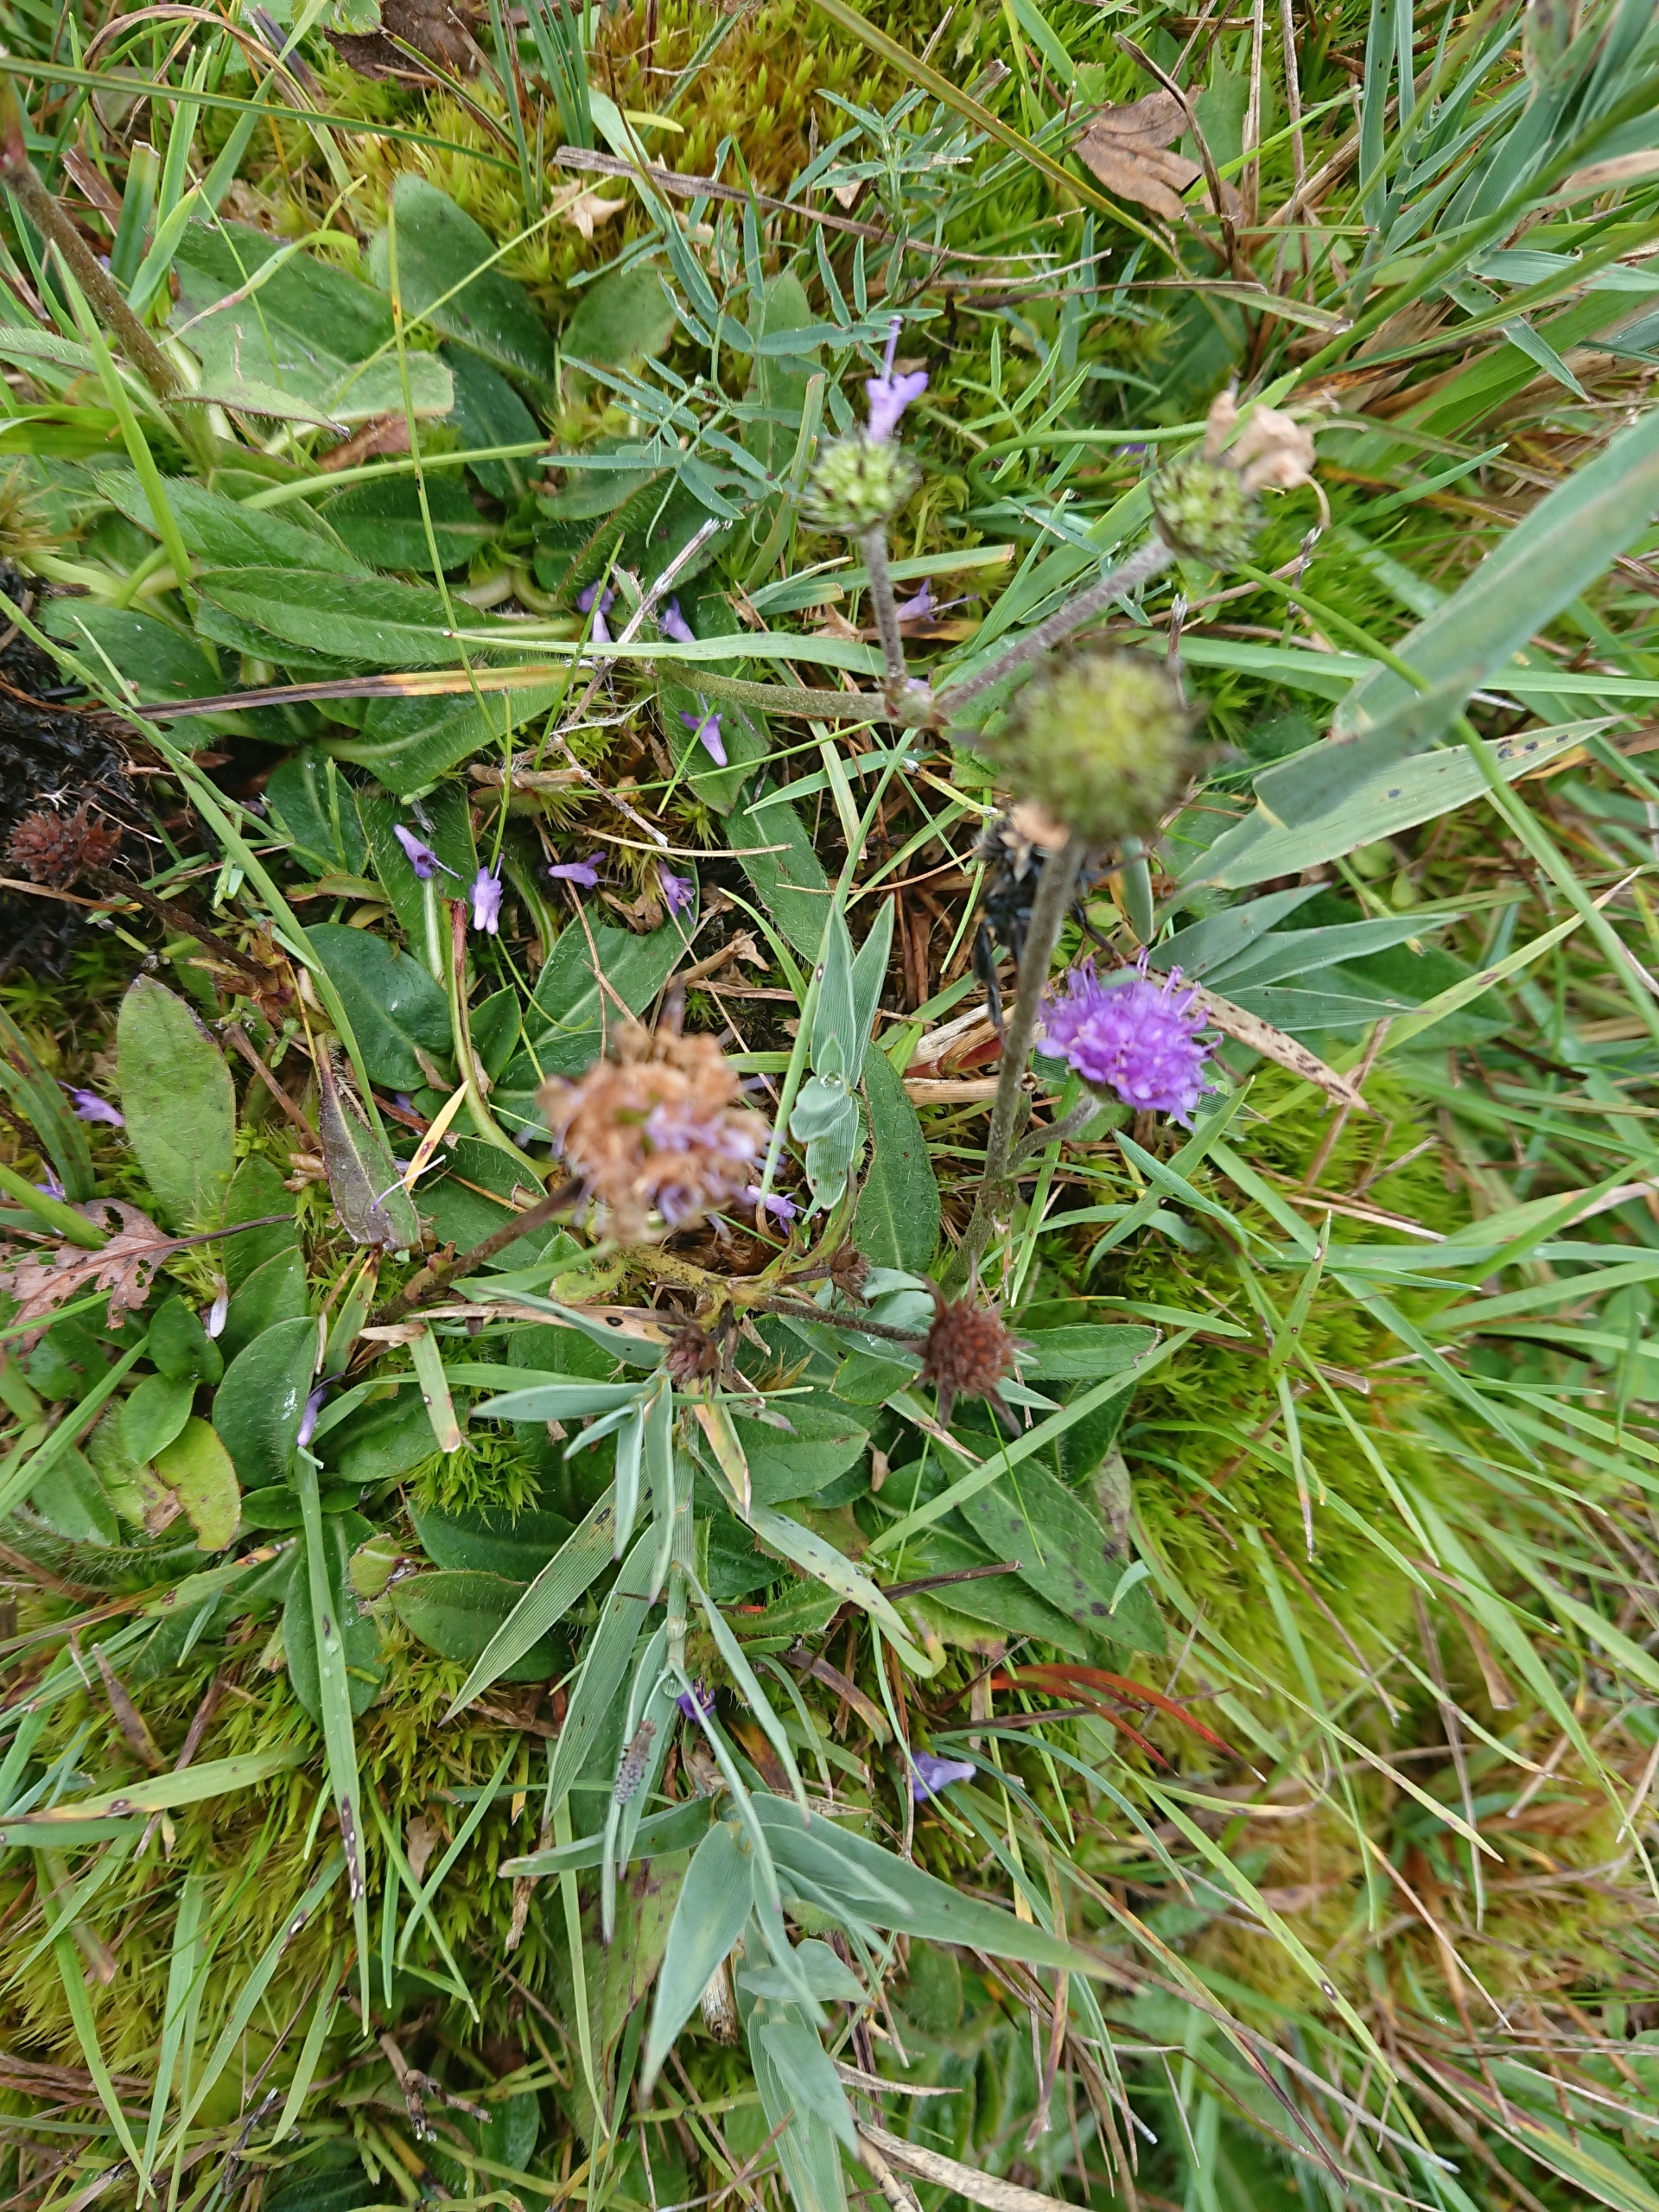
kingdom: Plantae
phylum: Tracheophyta
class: Magnoliopsida
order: Dipsacales
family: Caprifoliaceae
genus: Succisa
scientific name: Succisa pratensis
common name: Djævelsbid
